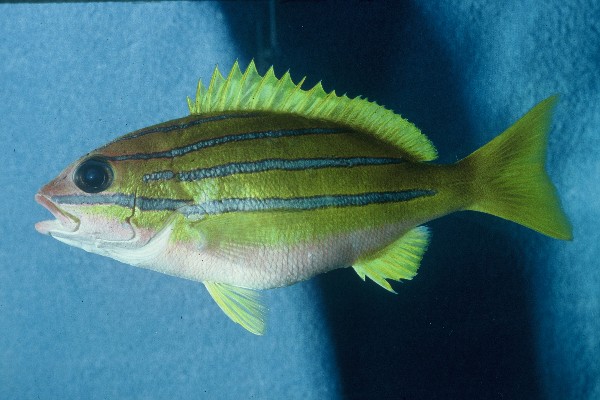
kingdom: Animalia
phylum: Chordata
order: Perciformes
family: Lutjanidae
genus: Lutjanus
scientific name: Lutjanus bengalensis
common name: Bengal snapper
